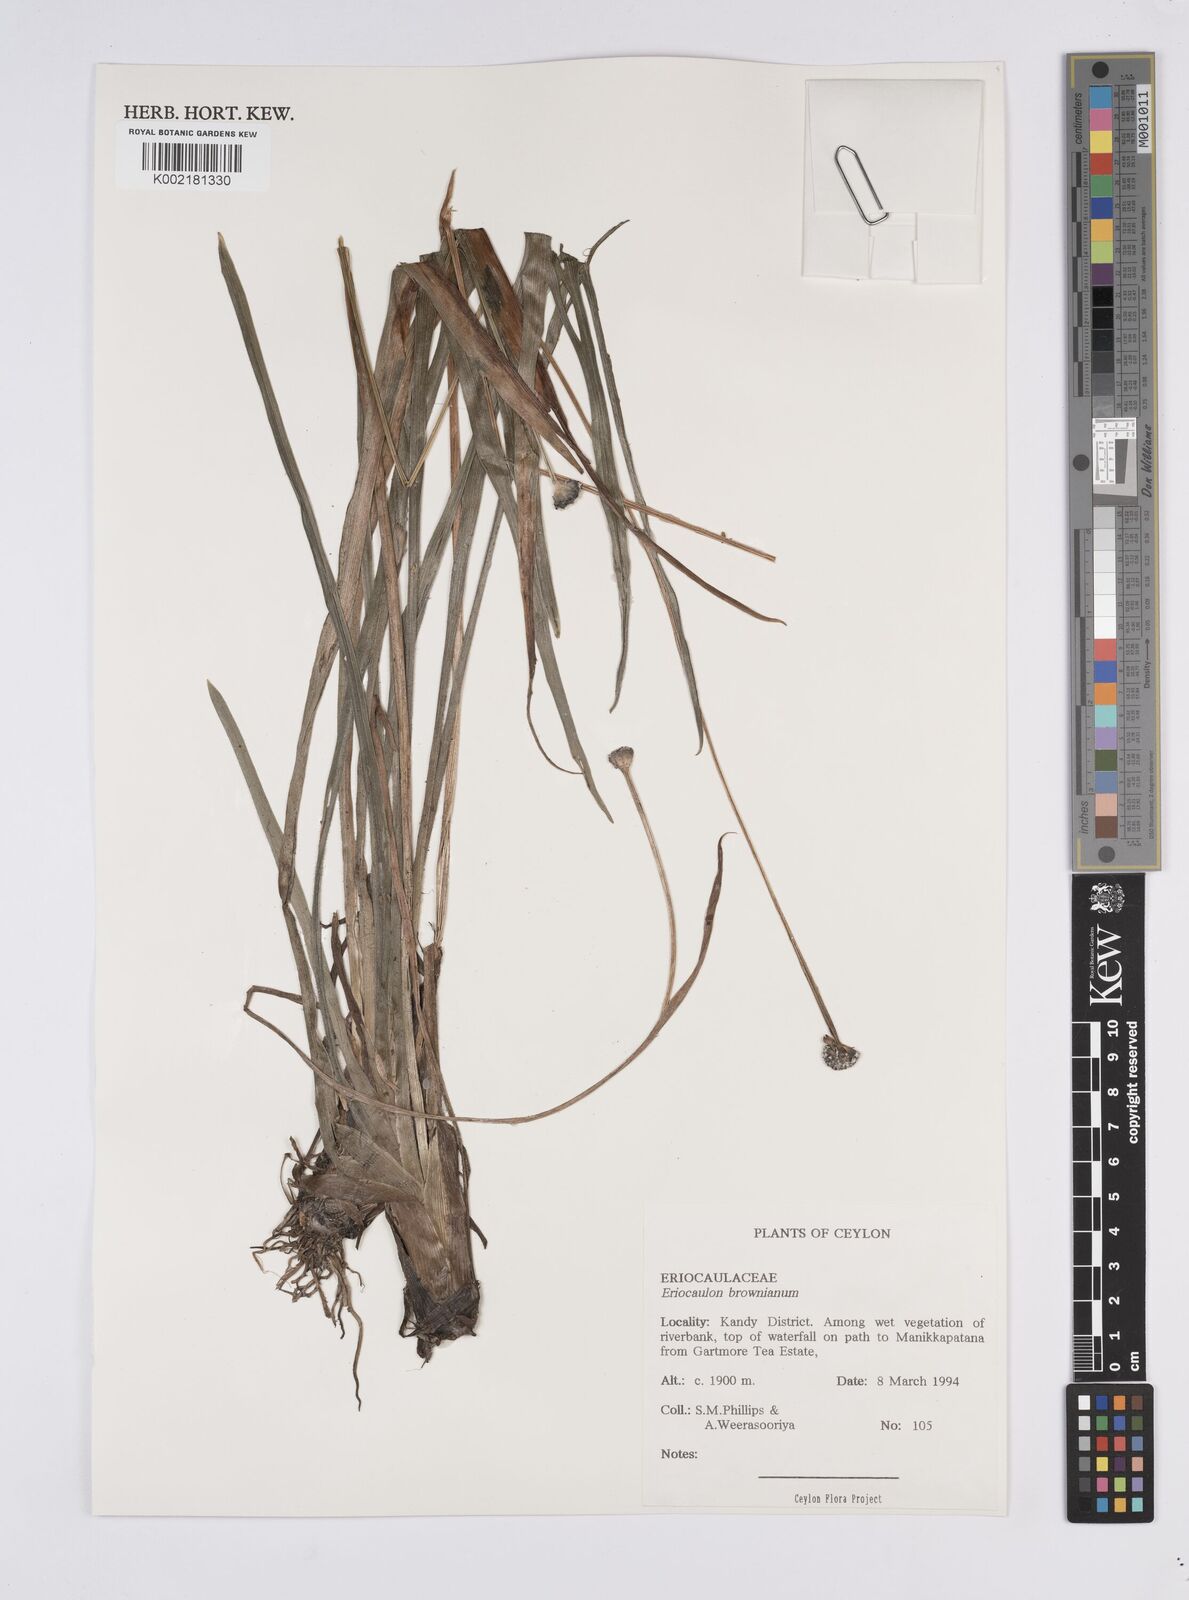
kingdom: Plantae
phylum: Tracheophyta
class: Liliopsida
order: Poales
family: Eriocaulaceae
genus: Eriocaulon
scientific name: Eriocaulon brownianum
